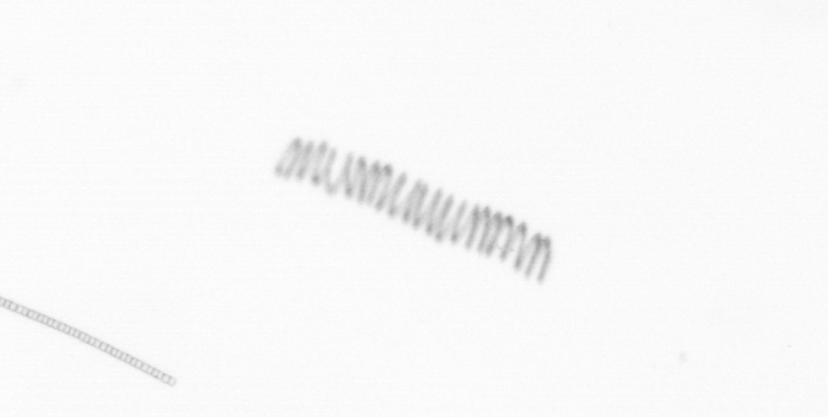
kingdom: Chromista
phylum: Ochrophyta
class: Bacillariophyceae
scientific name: Bacillariophyceae
